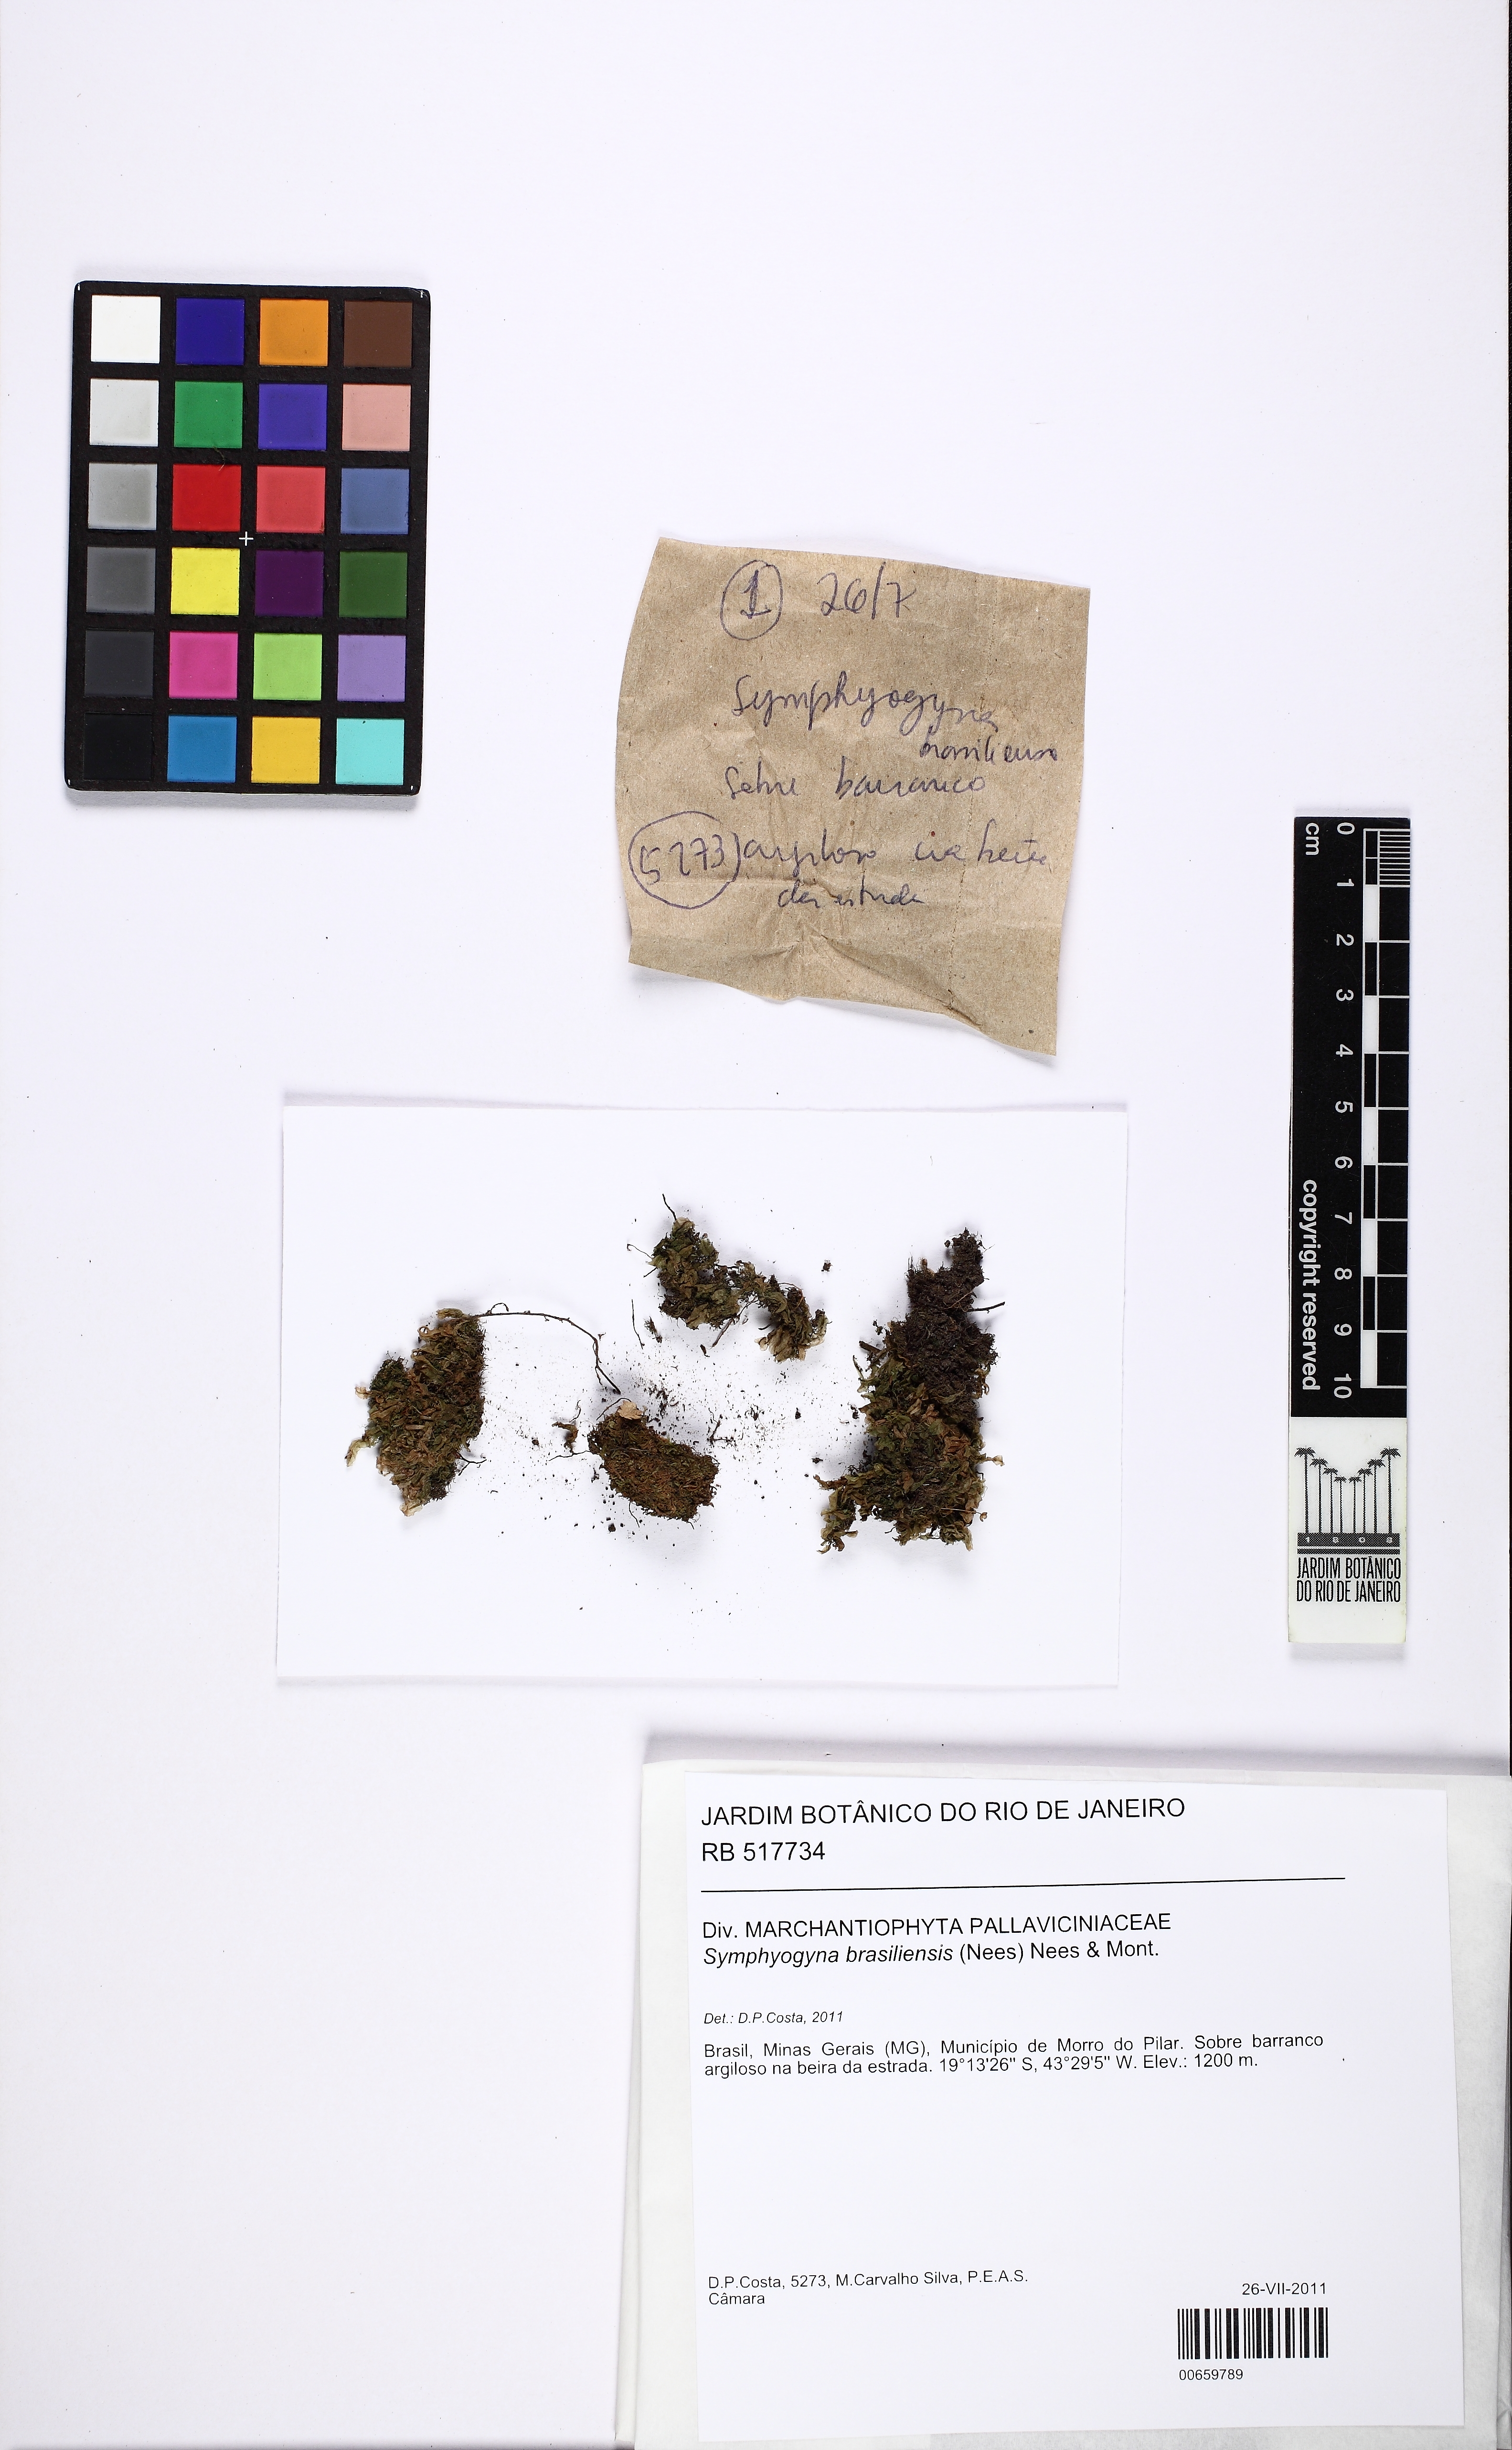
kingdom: Plantae
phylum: Marchantiophyta
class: Jungermanniopsida
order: Pallaviciniales
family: Pallaviciniaceae
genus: Symphyogyna
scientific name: Symphyogyna brasiliensis
